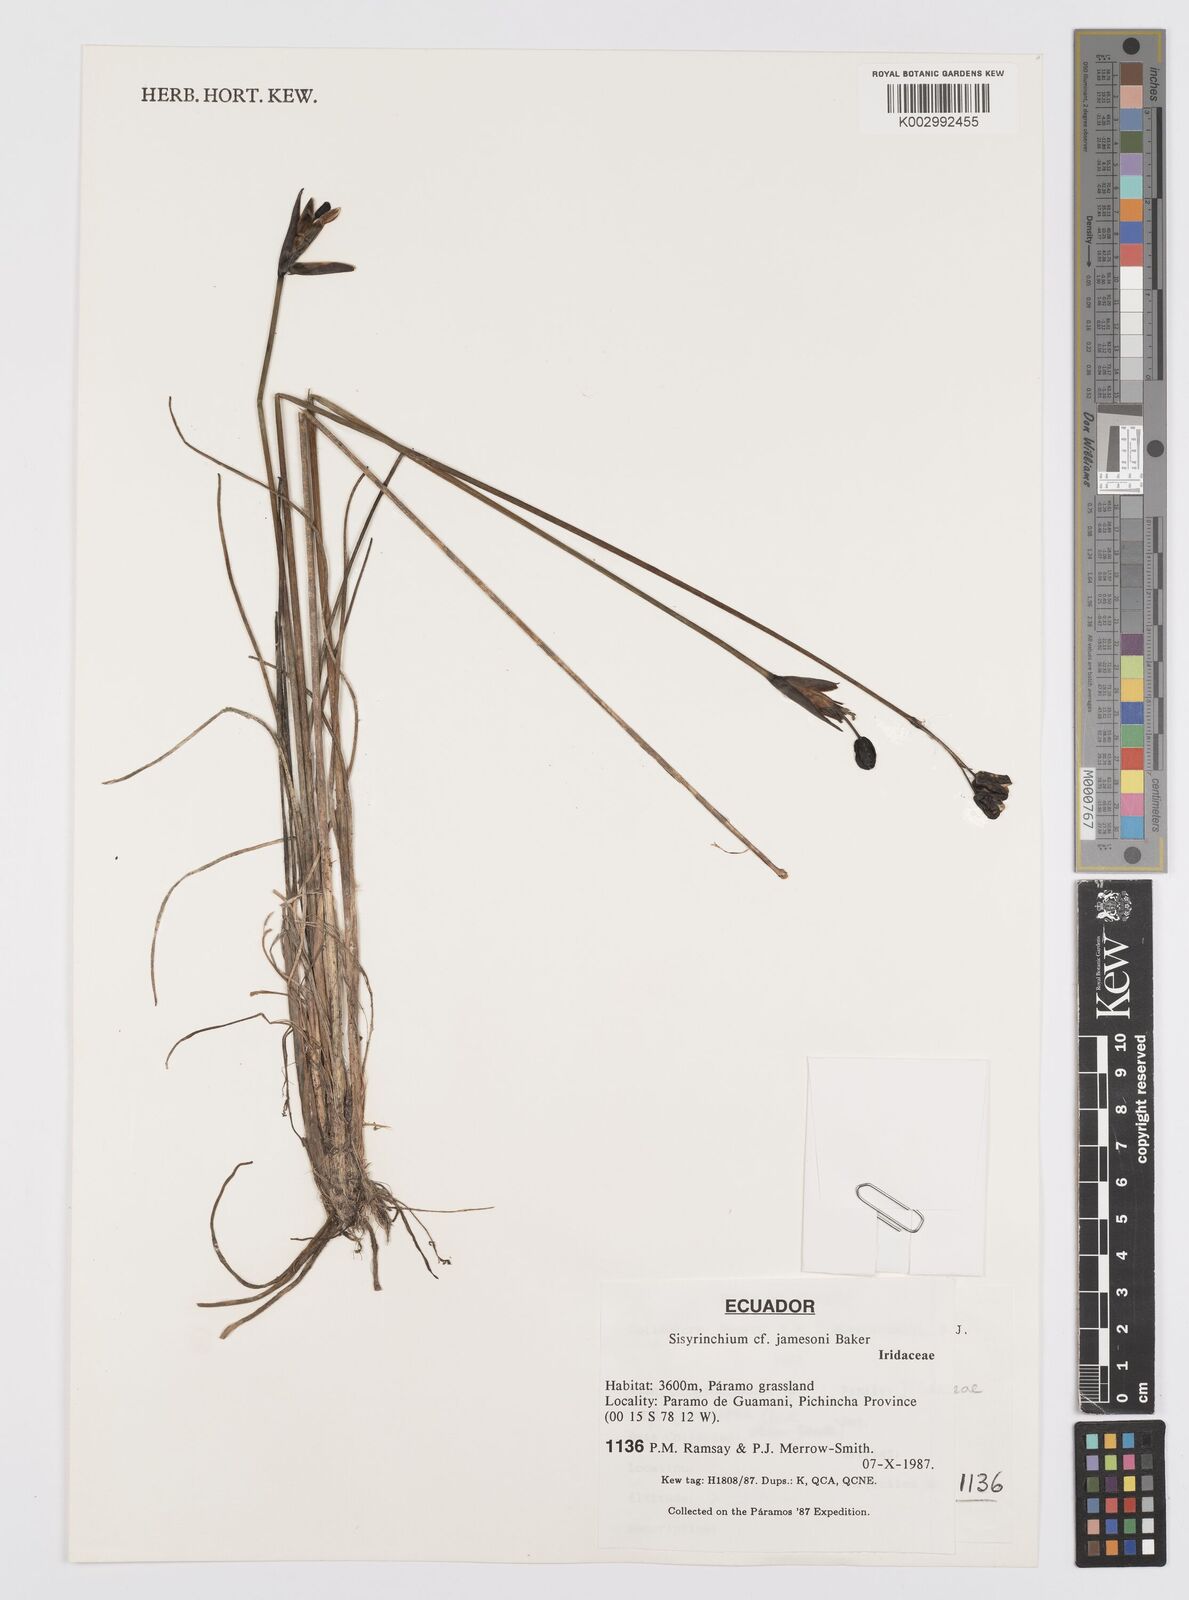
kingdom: Plantae
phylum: Tracheophyta
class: Liliopsida
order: Asparagales
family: Iridaceae
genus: Sisyrinchium
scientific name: Sisyrinchium jamesonii
